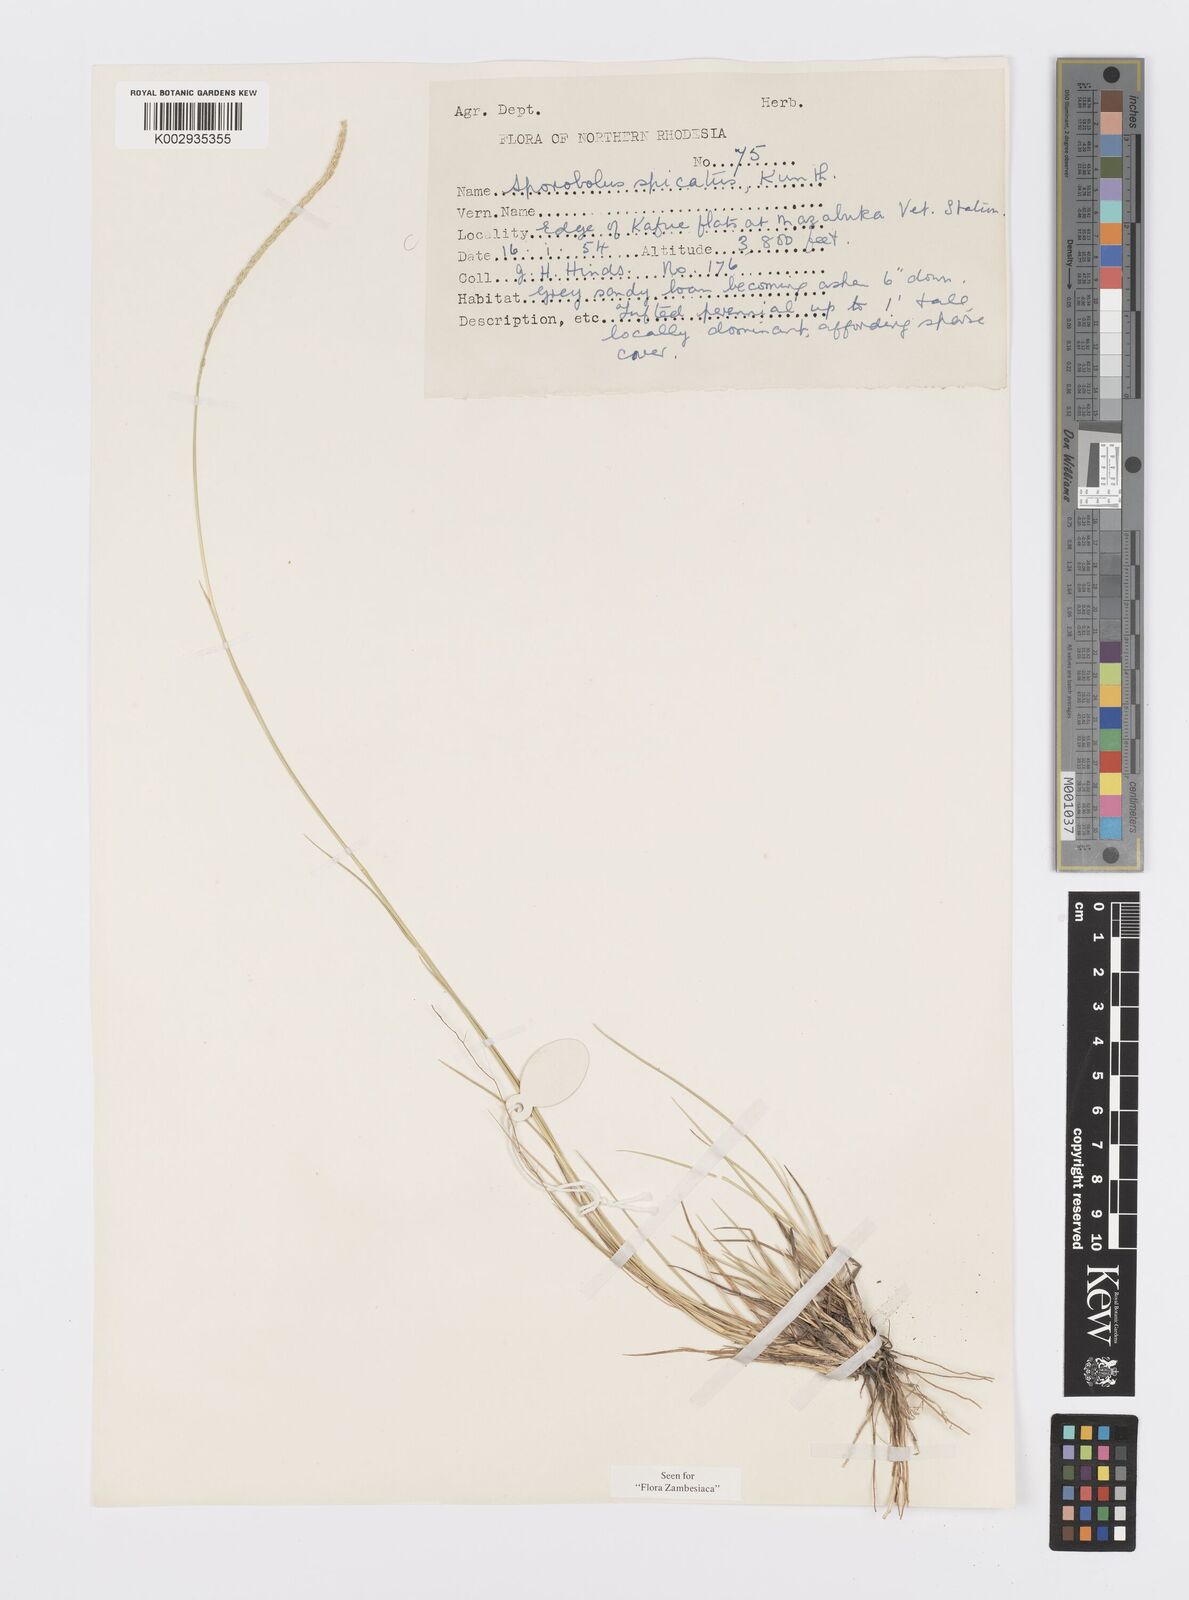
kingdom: Plantae
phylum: Tracheophyta
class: Liliopsida
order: Poales
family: Poaceae
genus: Sporobolus
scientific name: Sporobolus spicatus
